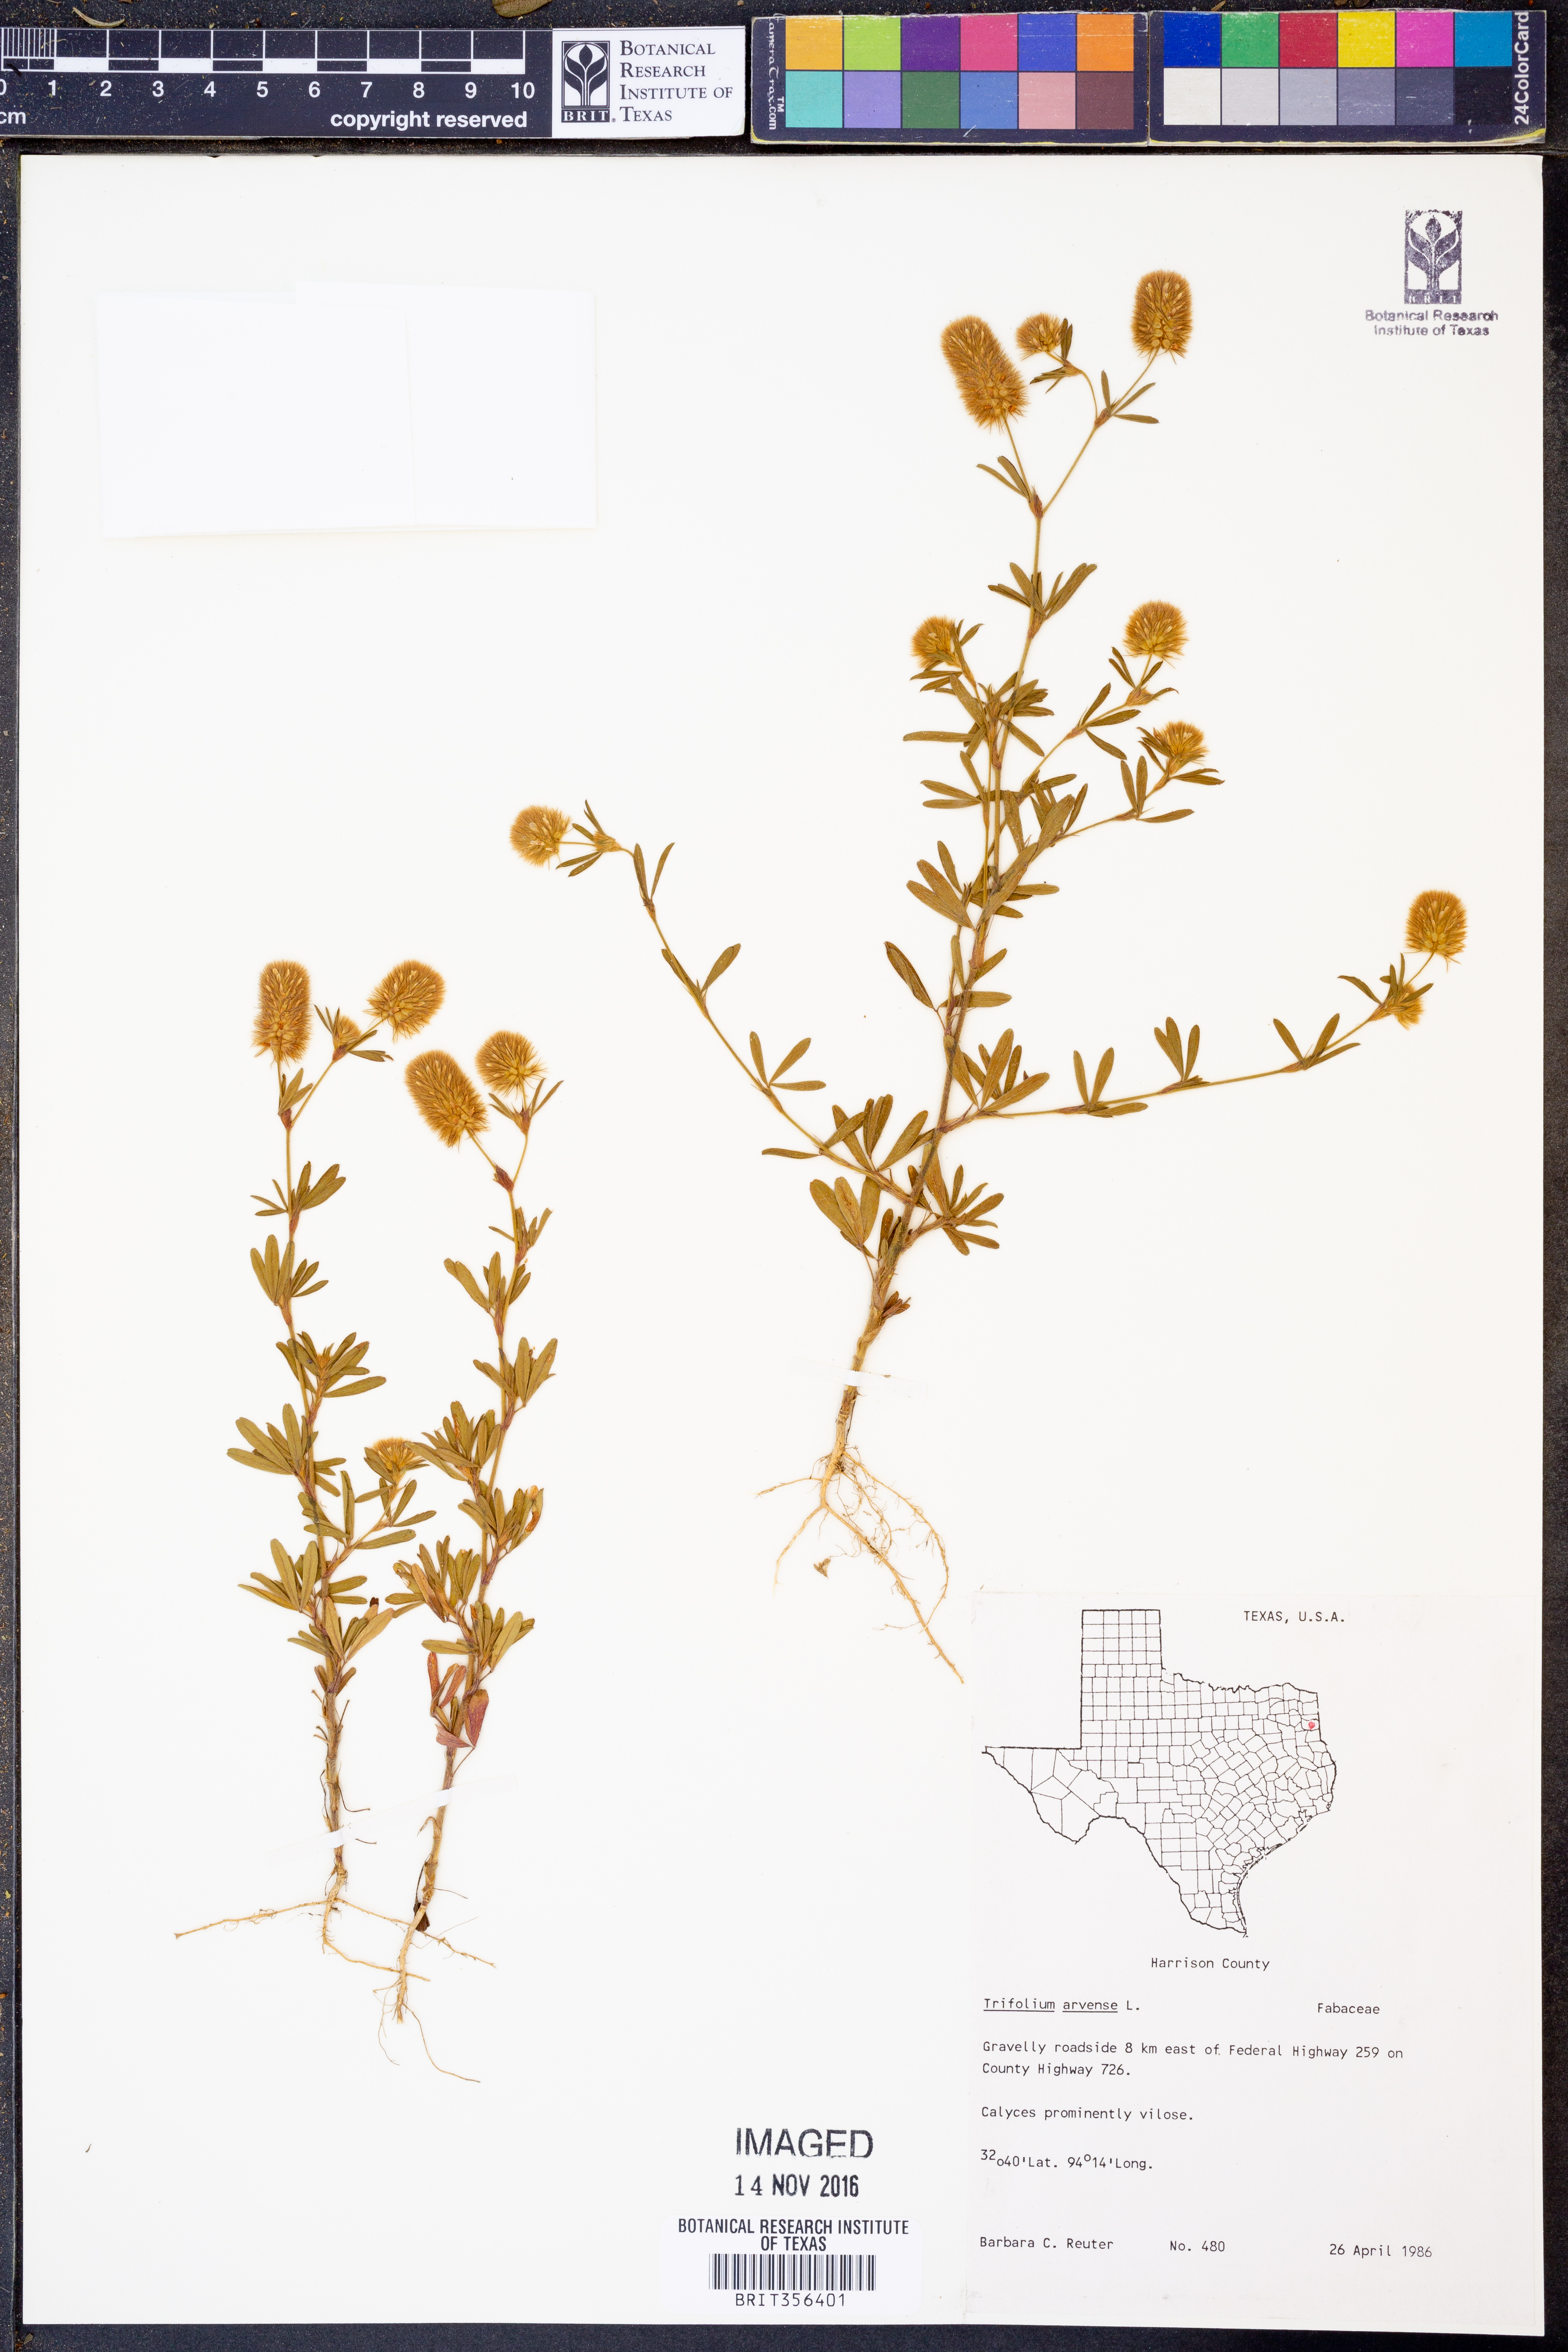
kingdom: Plantae
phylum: Tracheophyta
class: Magnoliopsida
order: Fabales
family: Fabaceae
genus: Trifolium
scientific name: Trifolium arvense
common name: Hare's-foot clover
